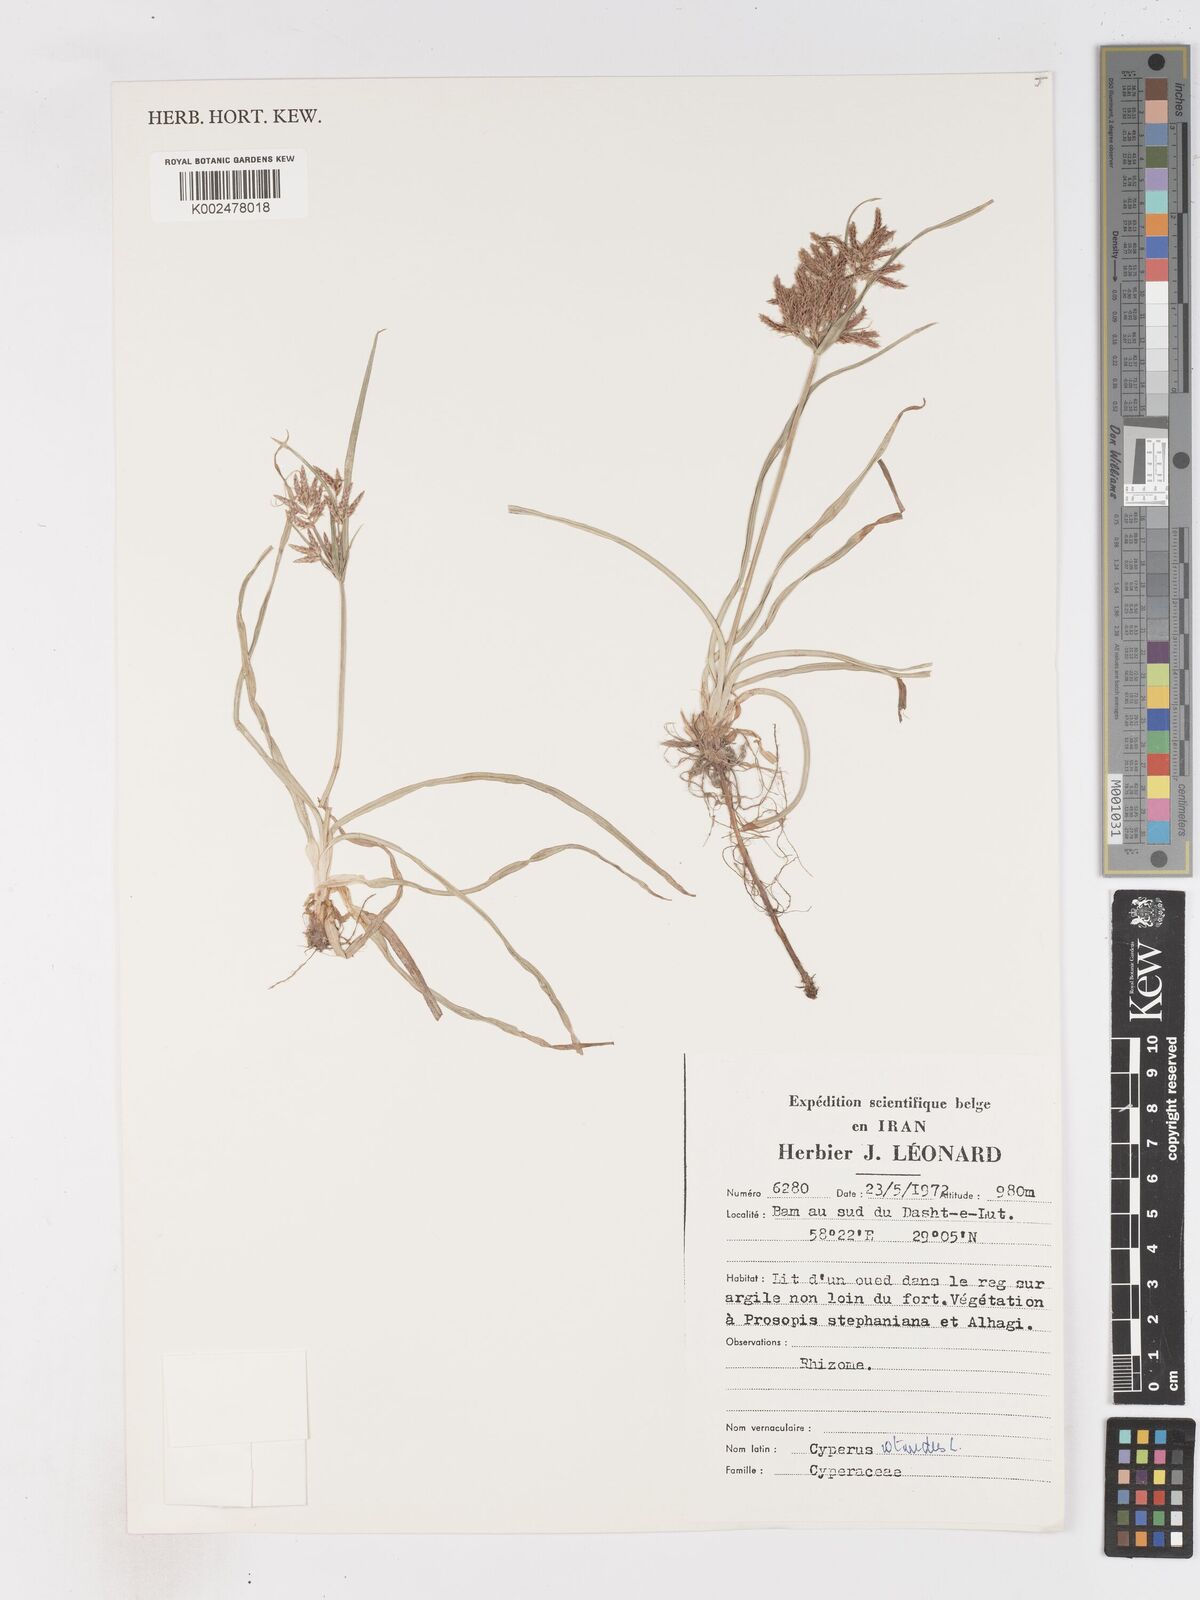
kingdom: Plantae
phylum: Tracheophyta
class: Liliopsida
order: Poales
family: Cyperaceae
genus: Cyperus
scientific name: Cyperus rotundus
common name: Nutgrass
